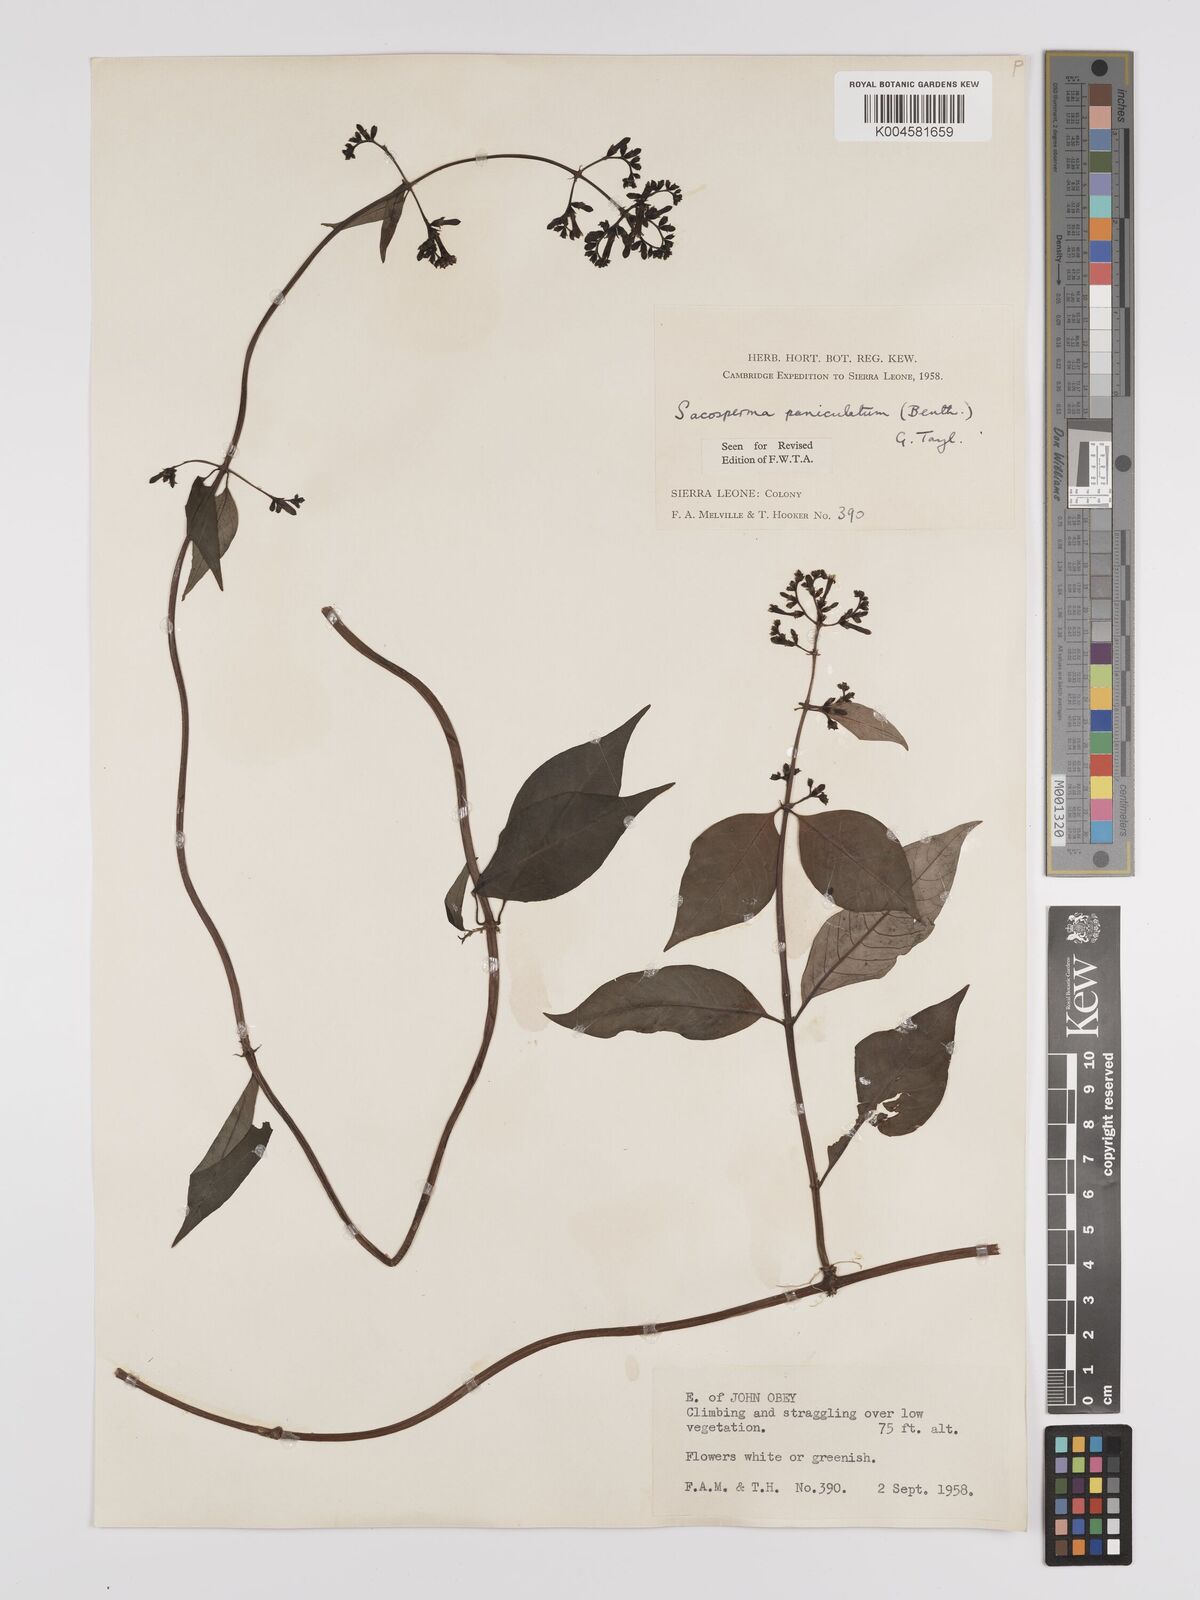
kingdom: Plantae
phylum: Tracheophyta
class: Magnoliopsida
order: Gentianales
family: Rubiaceae
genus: Sacosperma
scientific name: Sacosperma paniculatum
